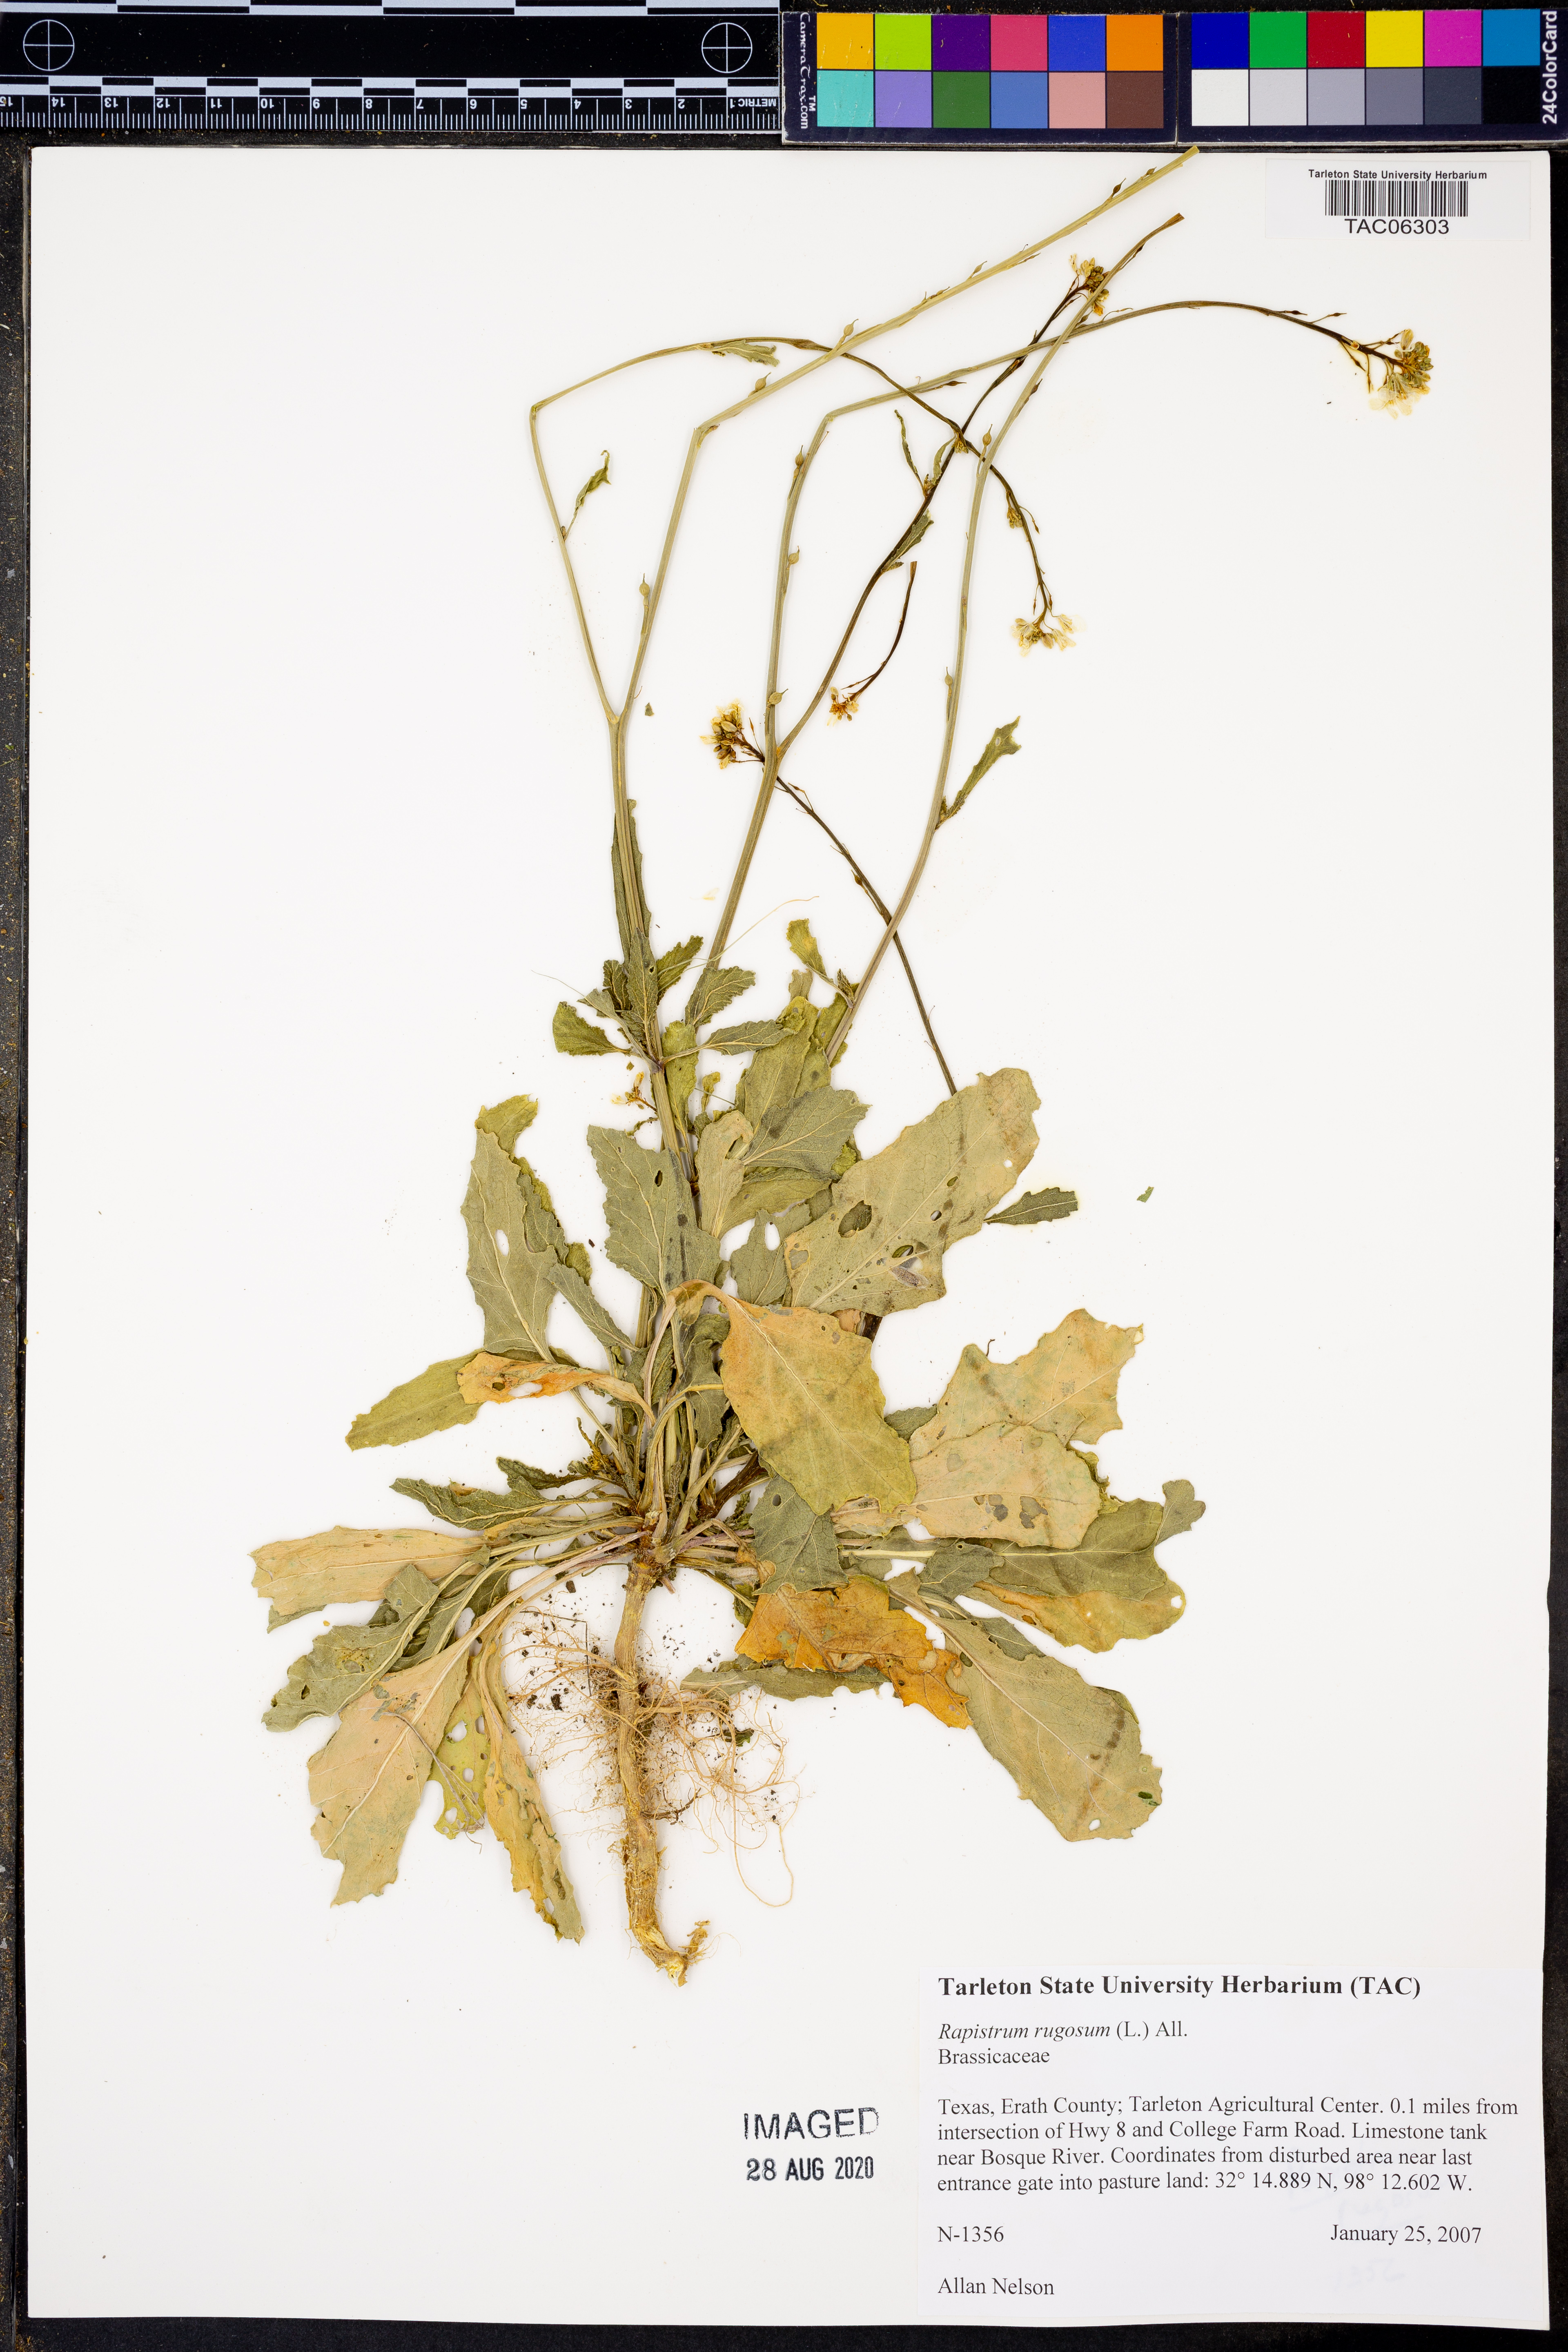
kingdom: Plantae
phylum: Tracheophyta
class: Magnoliopsida
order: Brassicales
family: Brassicaceae
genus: Rapistrum
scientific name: Rapistrum rugosum
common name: Annual bastardcabbage
